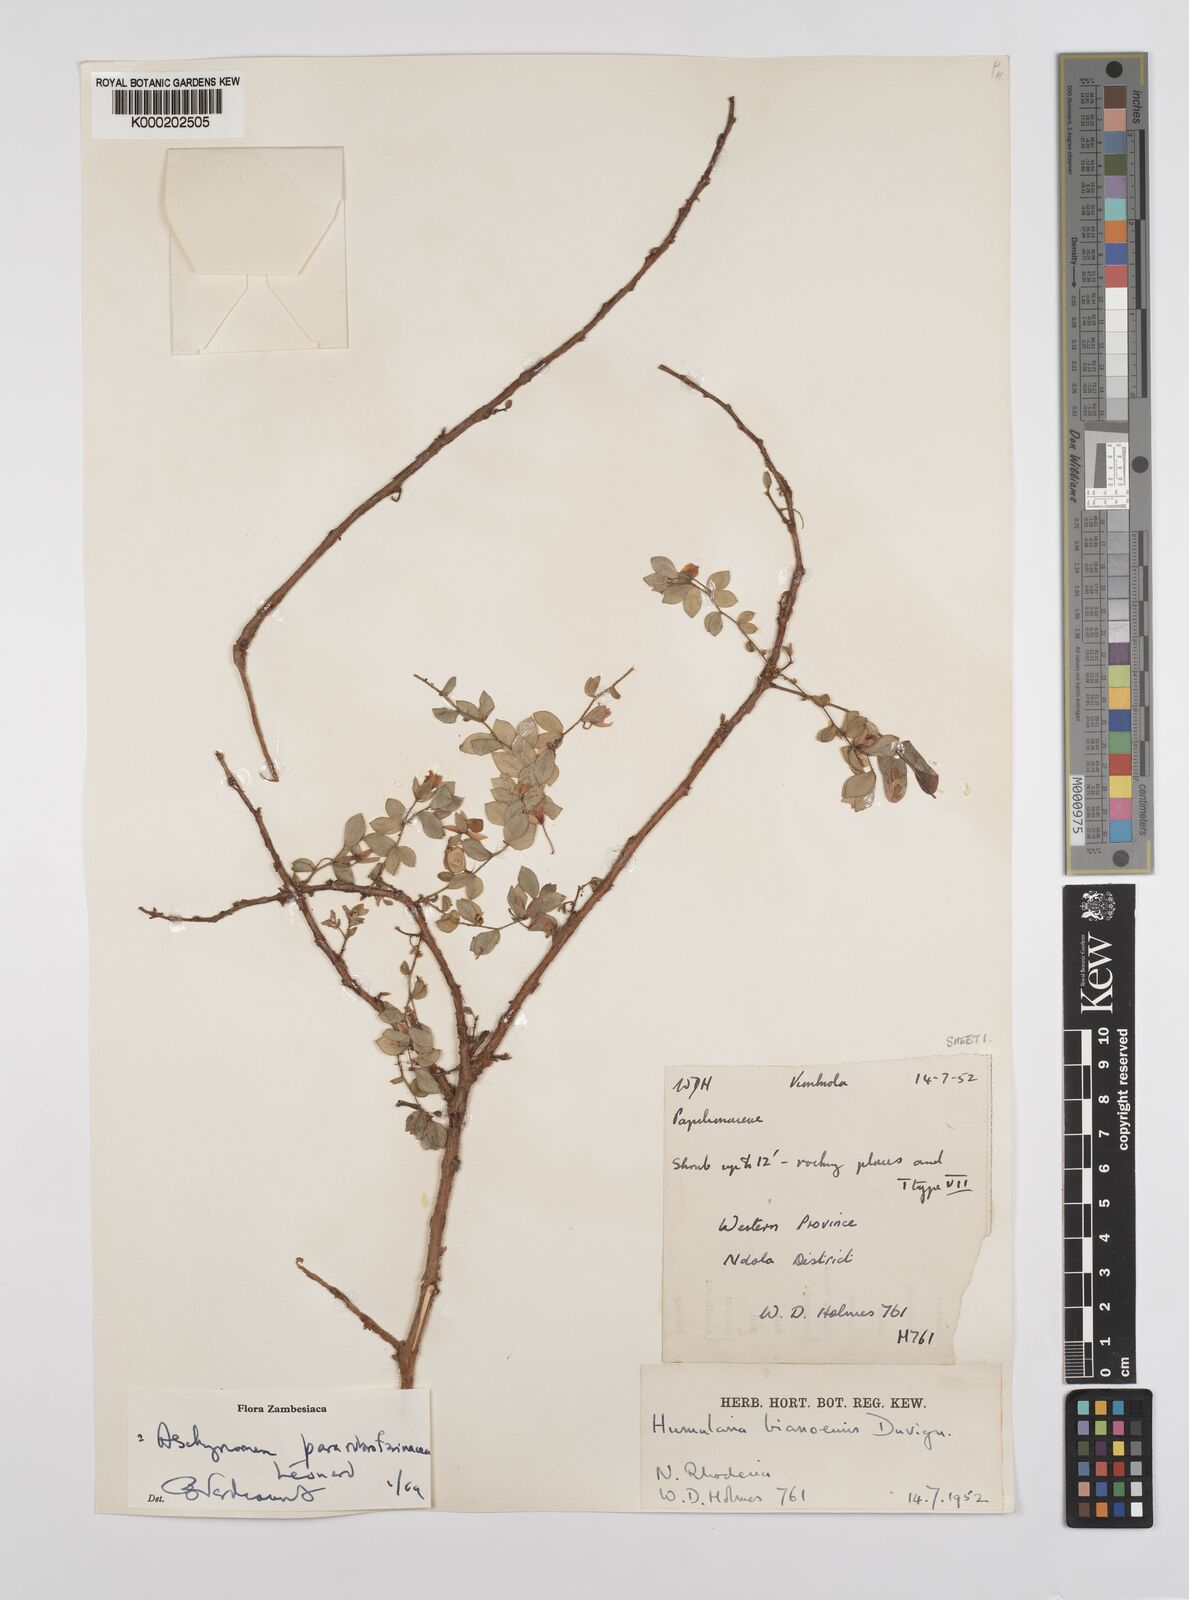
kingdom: Plantae
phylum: Tracheophyta
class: Magnoliopsida
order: Fabales
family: Fabaceae
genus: Aeschynomene
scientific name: Aeschynomene pararubrofarinacea
